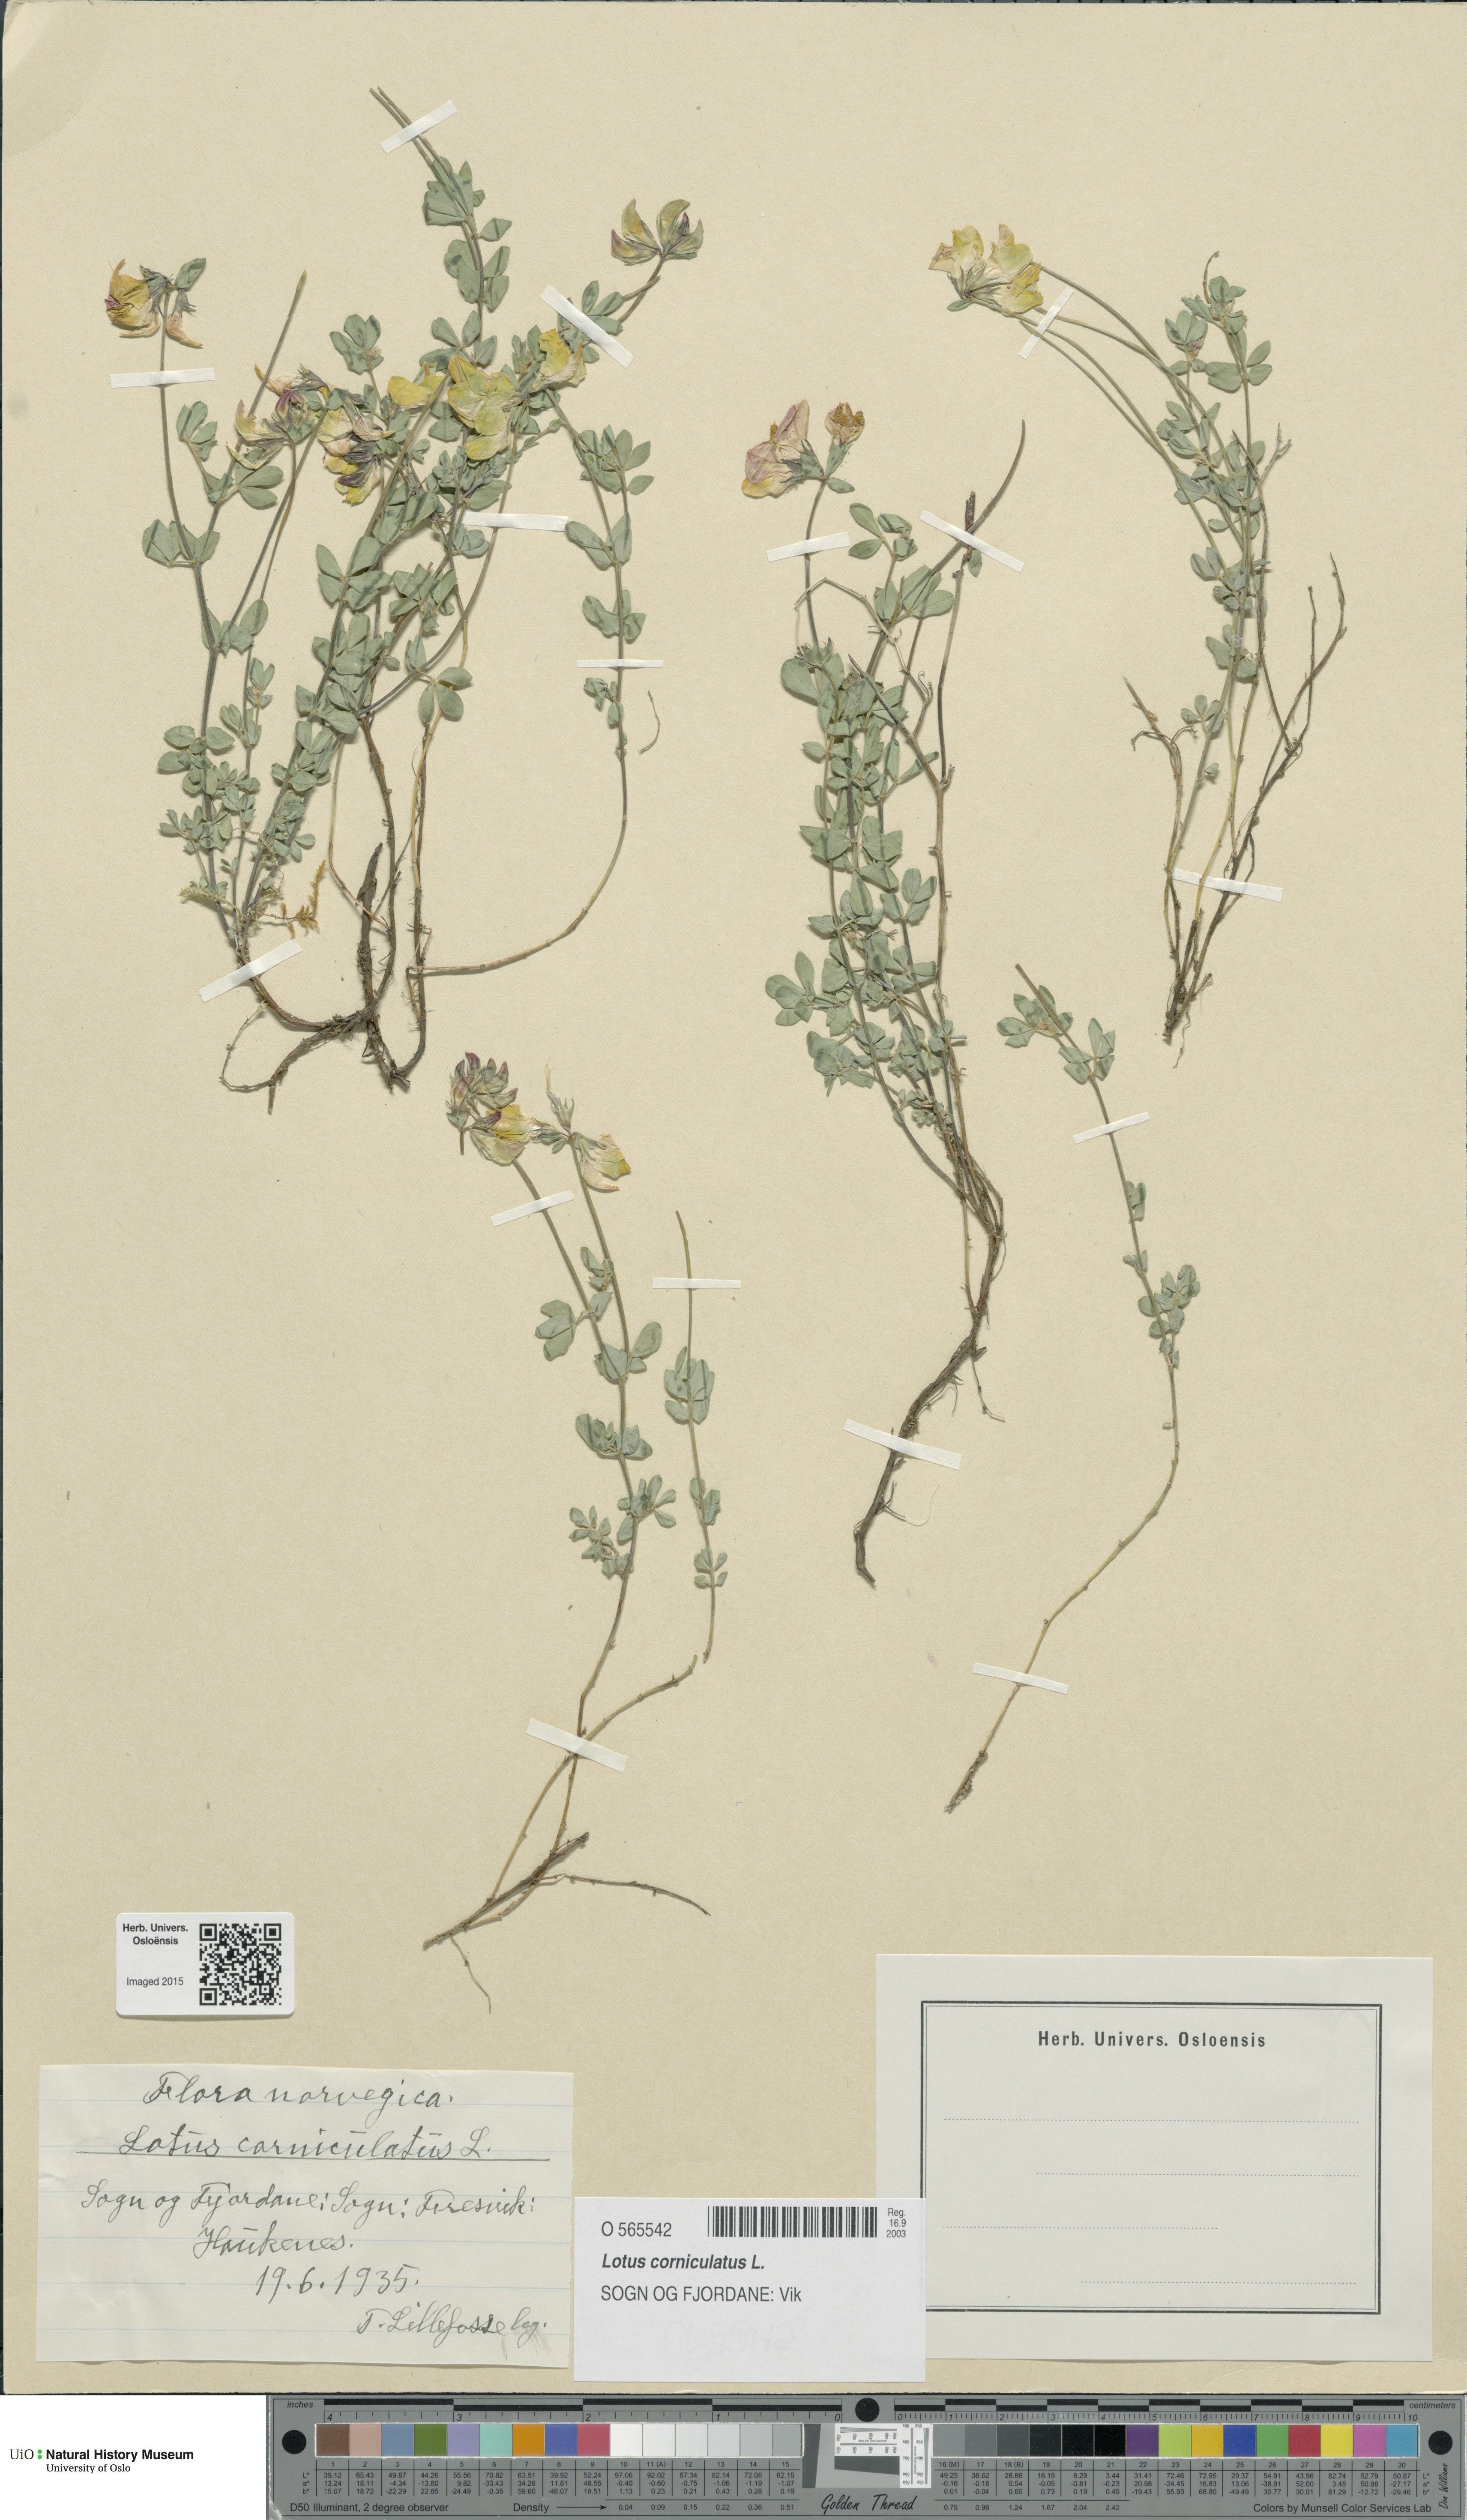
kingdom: Plantae
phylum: Tracheophyta
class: Magnoliopsida
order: Fabales
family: Fabaceae
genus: Lotus
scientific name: Lotus corniculatus
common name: Common bird's-foot-trefoil
